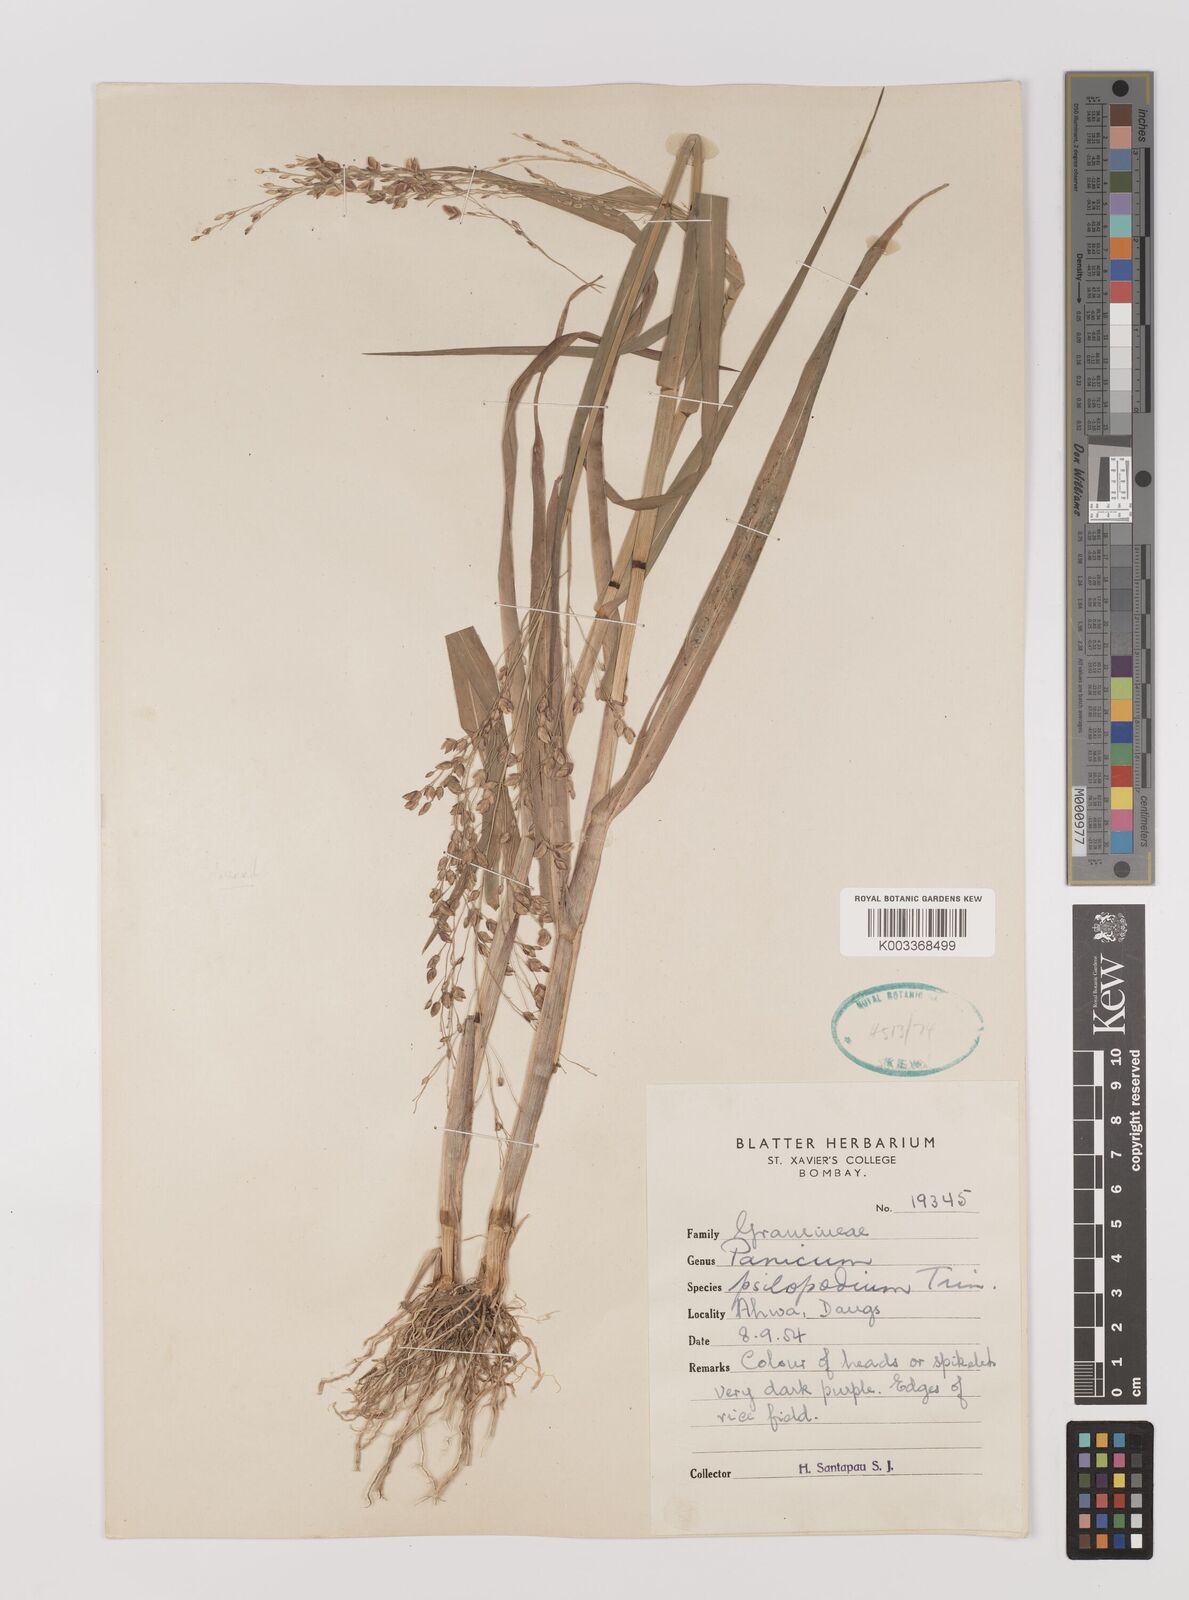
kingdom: Plantae
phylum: Tracheophyta
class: Liliopsida
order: Poales
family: Poaceae
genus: Panicum
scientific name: Panicum sumatrense
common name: Little millet
